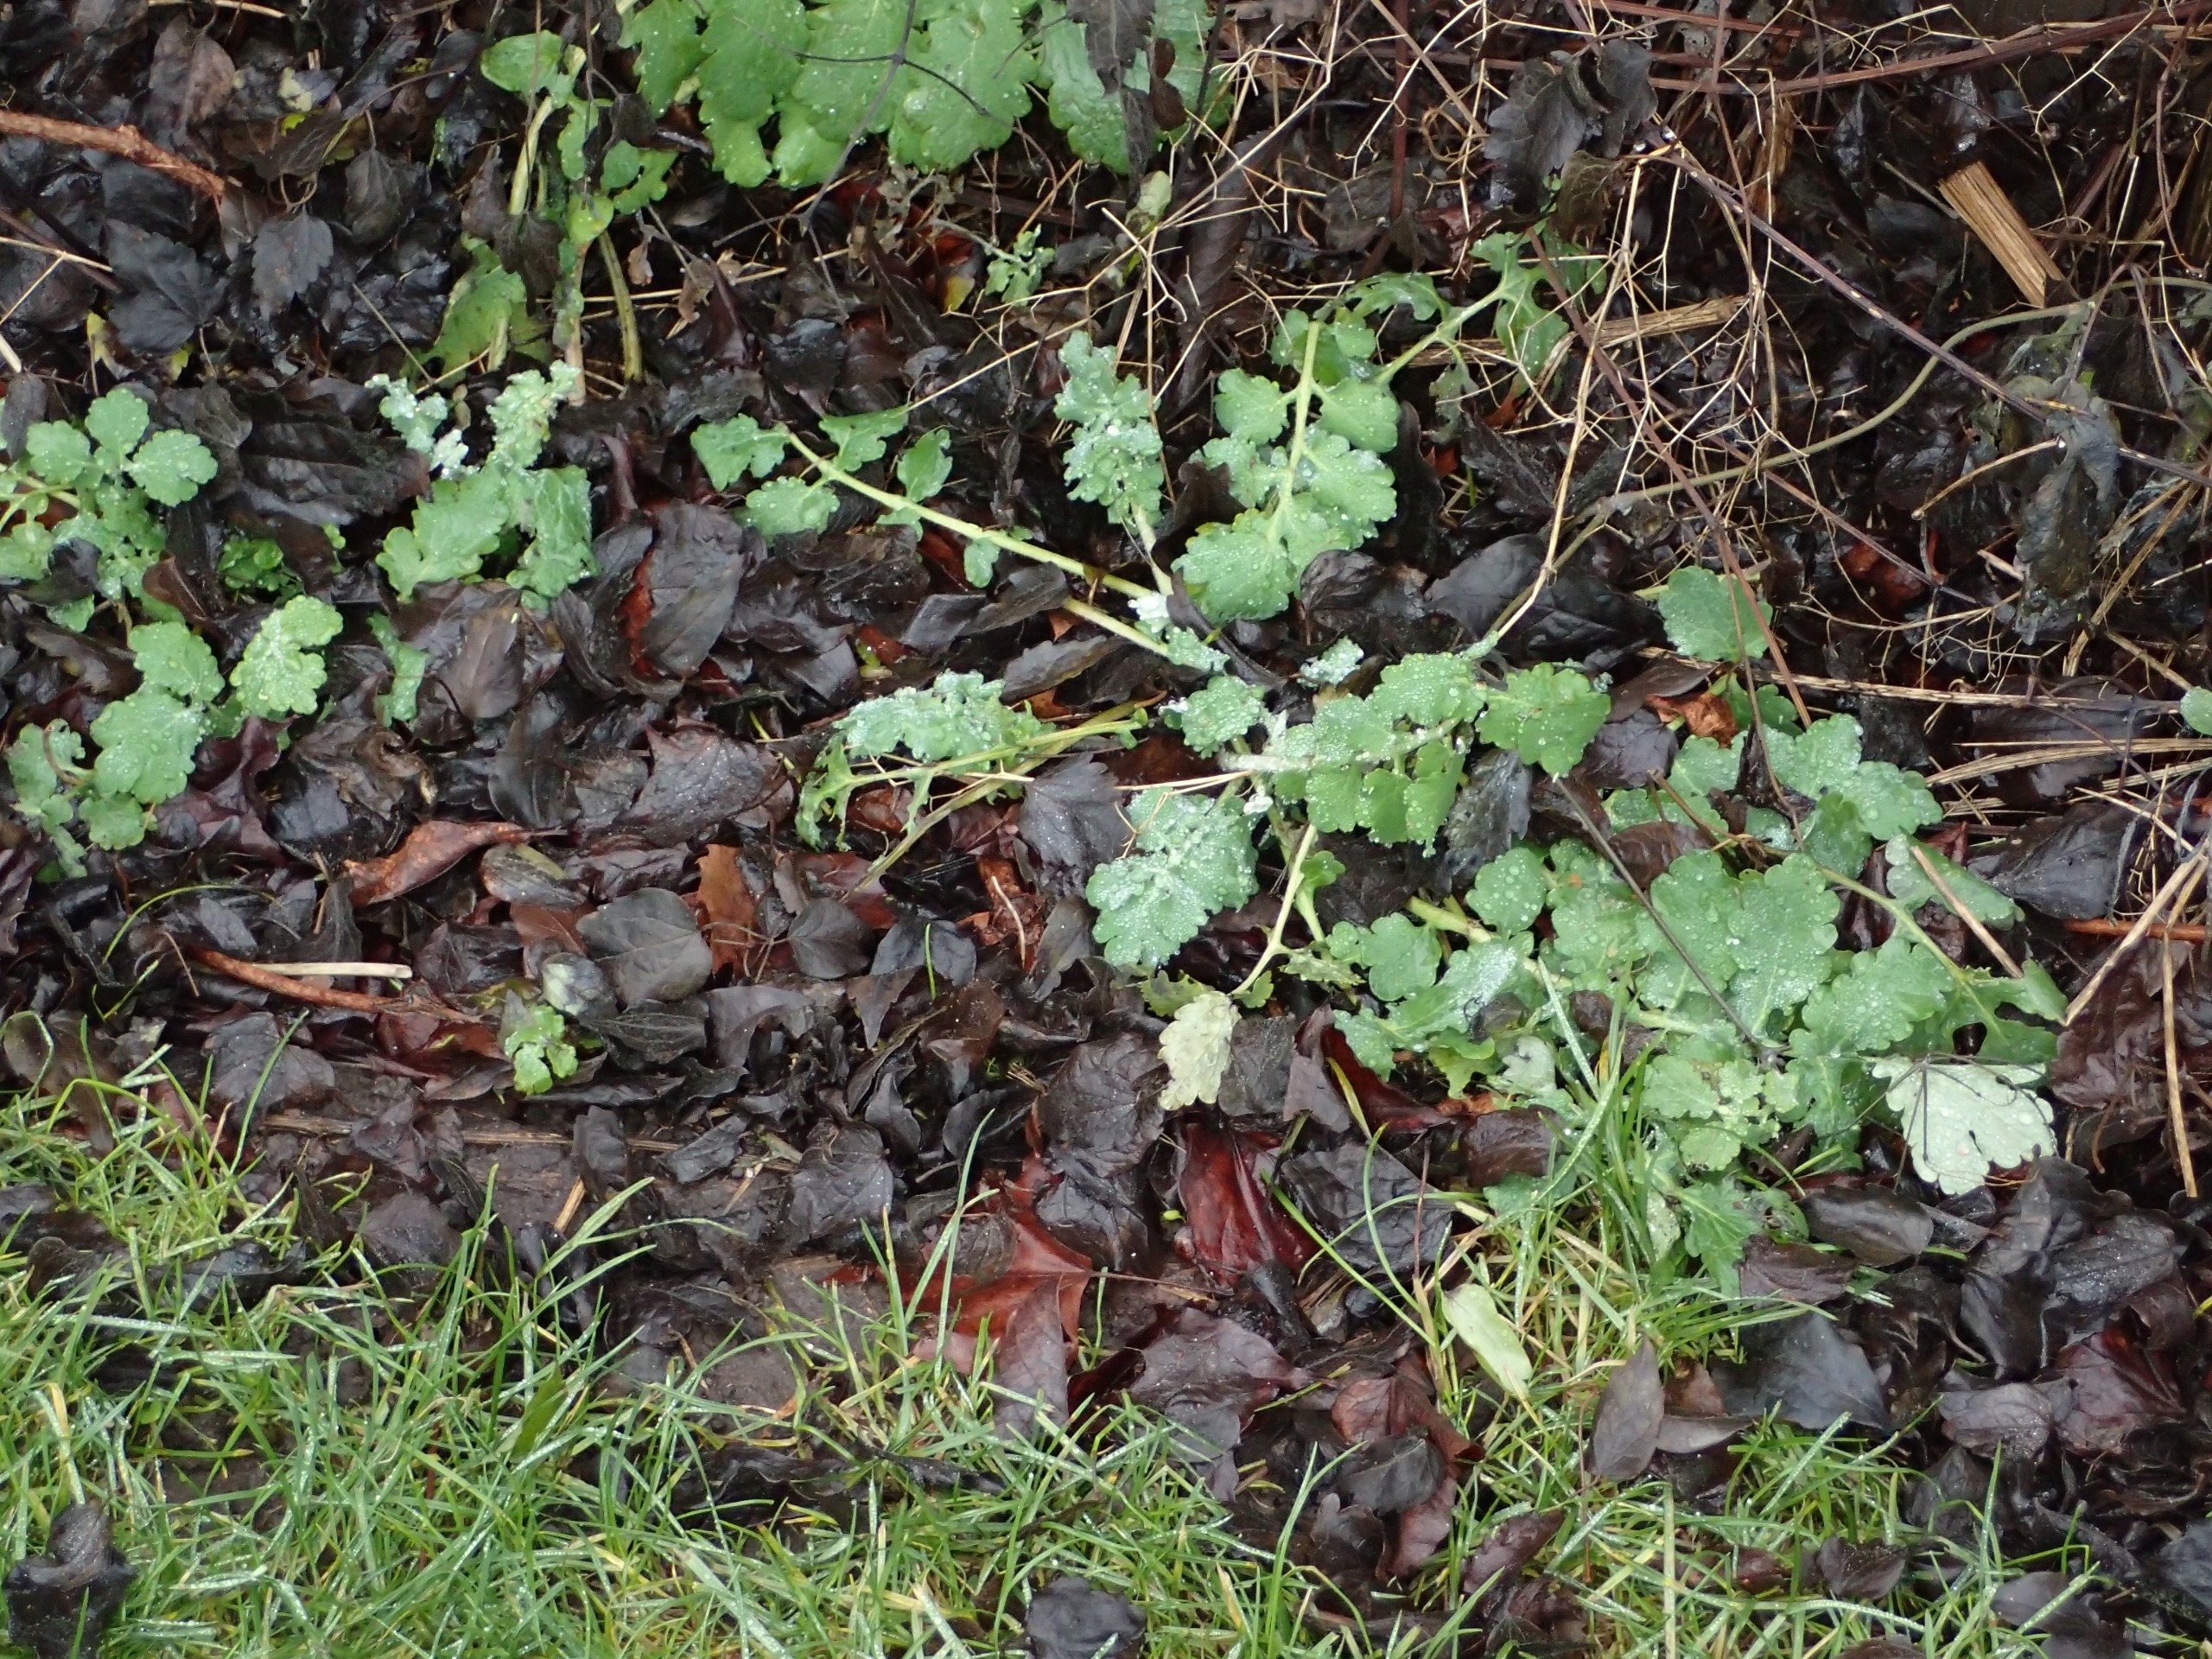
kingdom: Plantae
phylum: Tracheophyta
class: Magnoliopsida
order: Ranunculales
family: Papaveraceae
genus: Chelidonium
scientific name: Chelidonium majus
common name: Almindelig svaleurt
